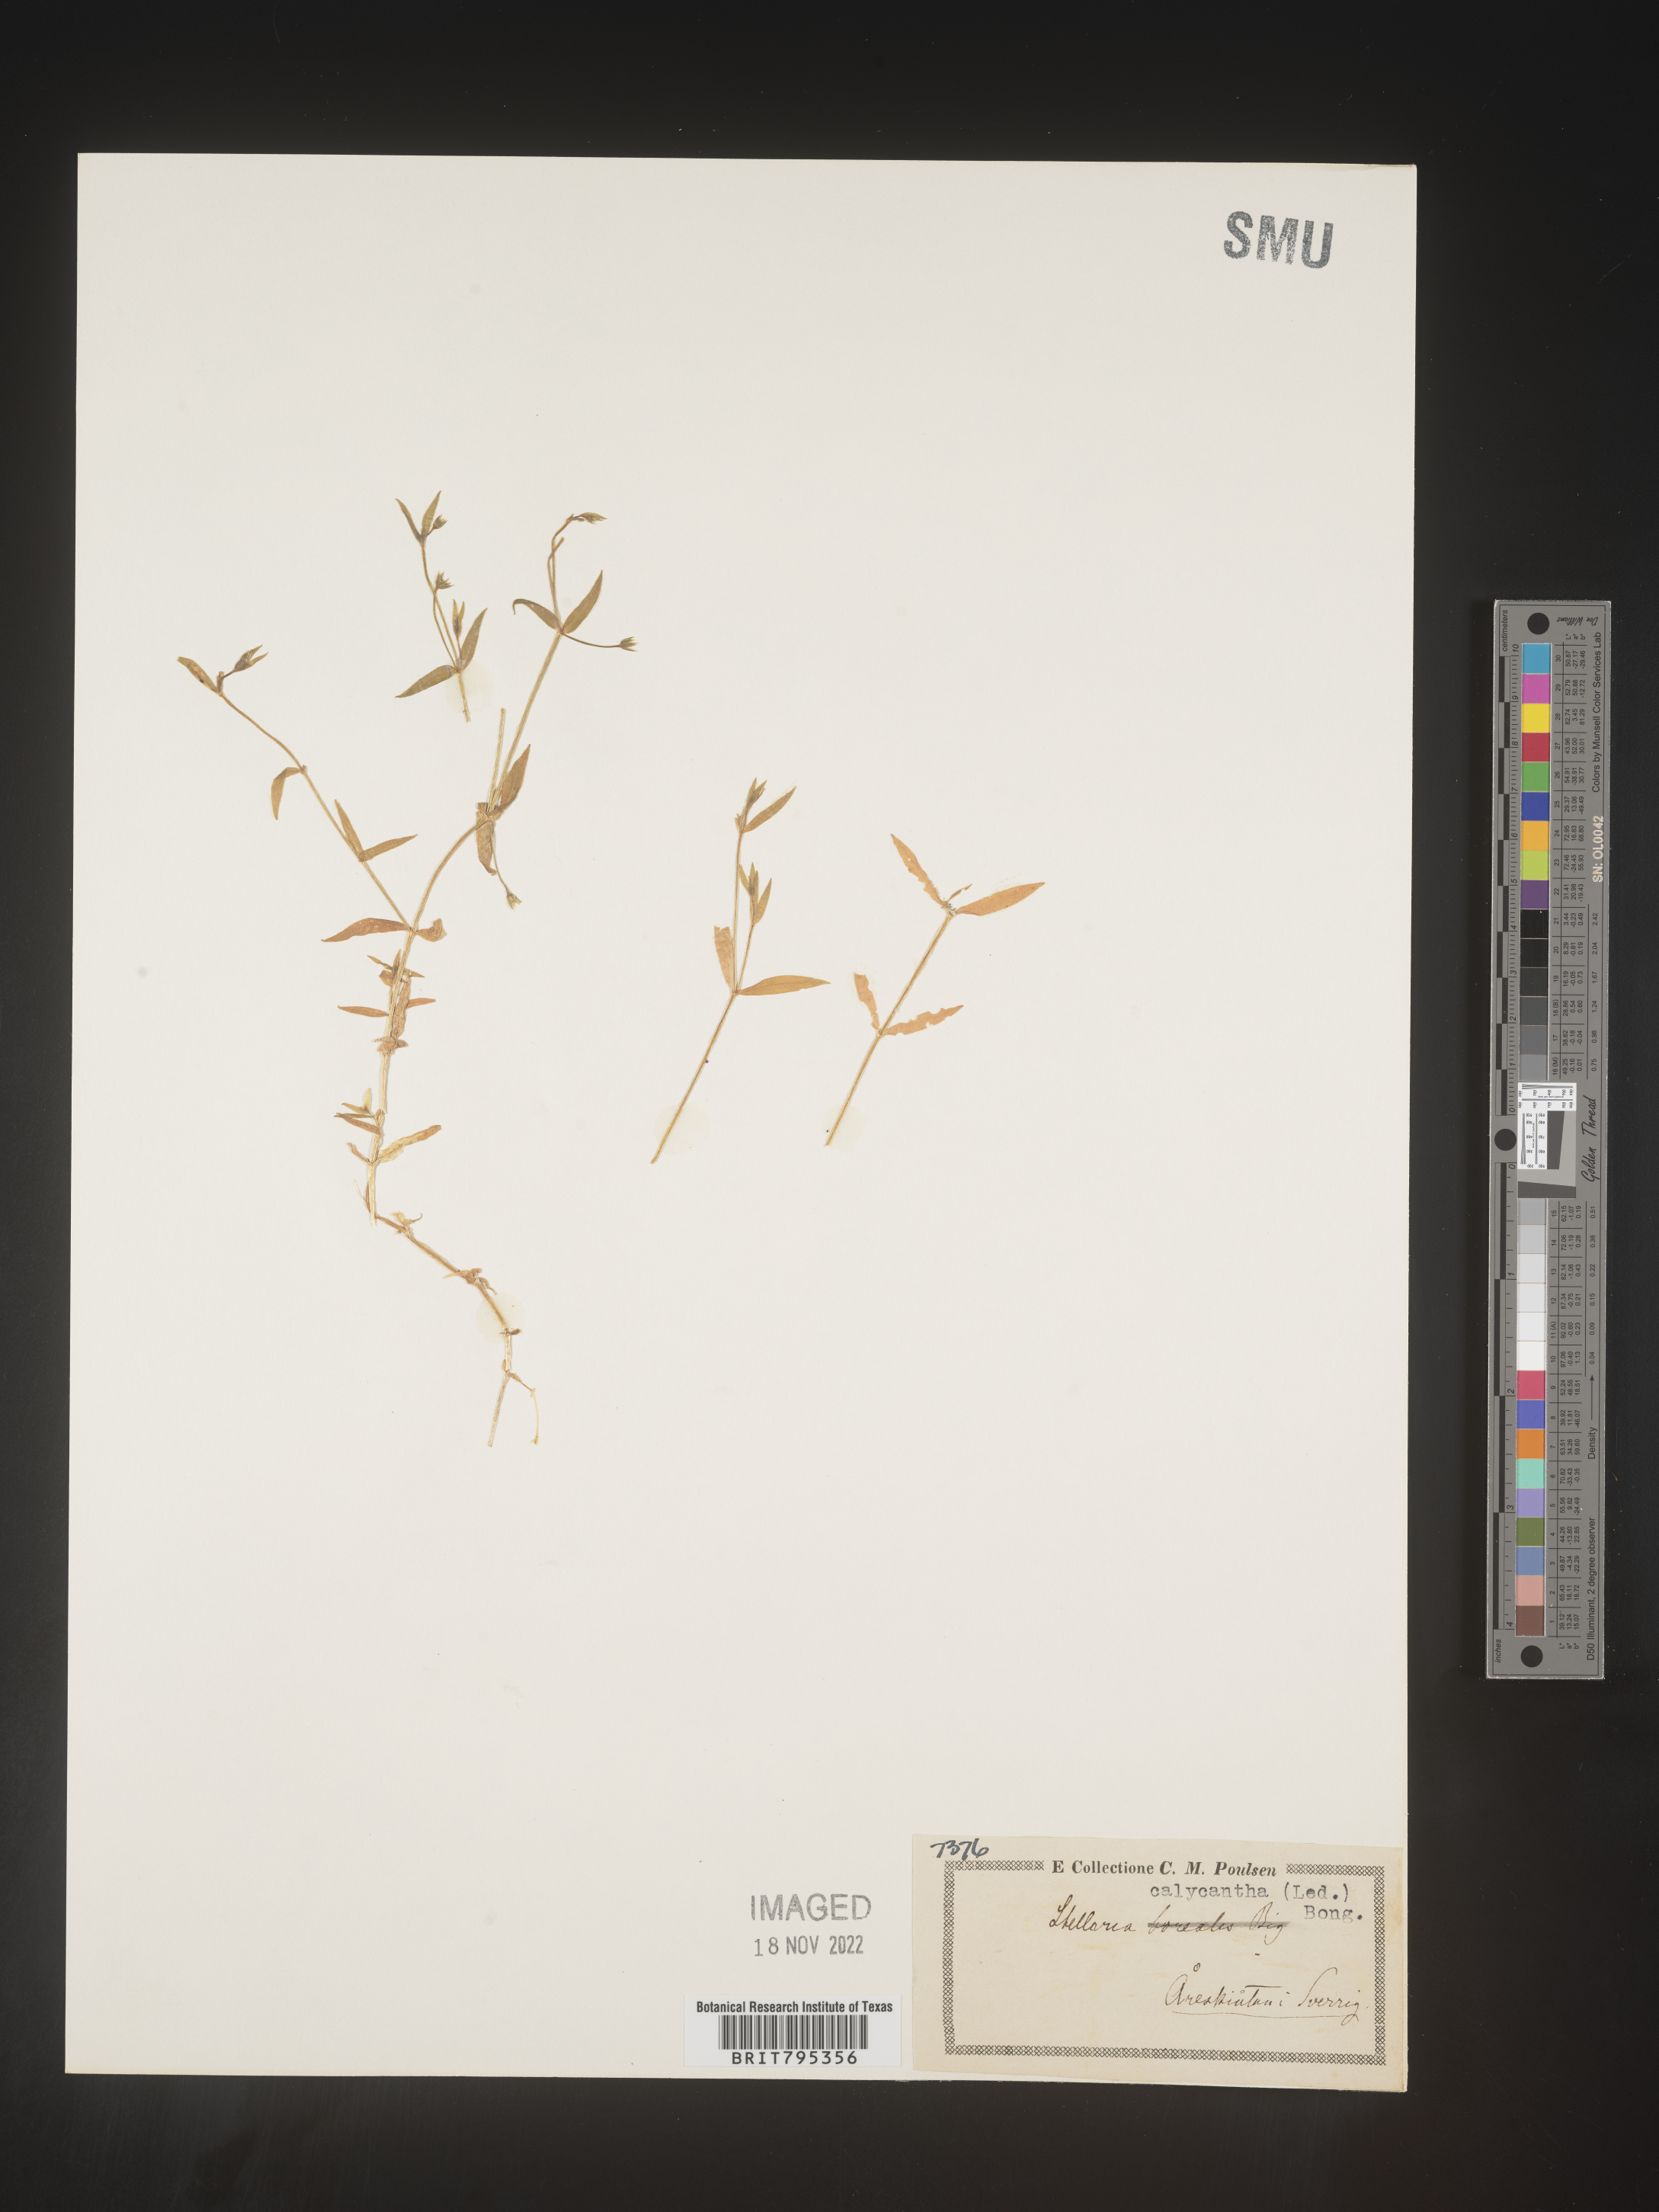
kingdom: Plantae
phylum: Tracheophyta
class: Magnoliopsida
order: Caryophyllales
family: Caryophyllaceae
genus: Stellaria
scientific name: Stellaria
